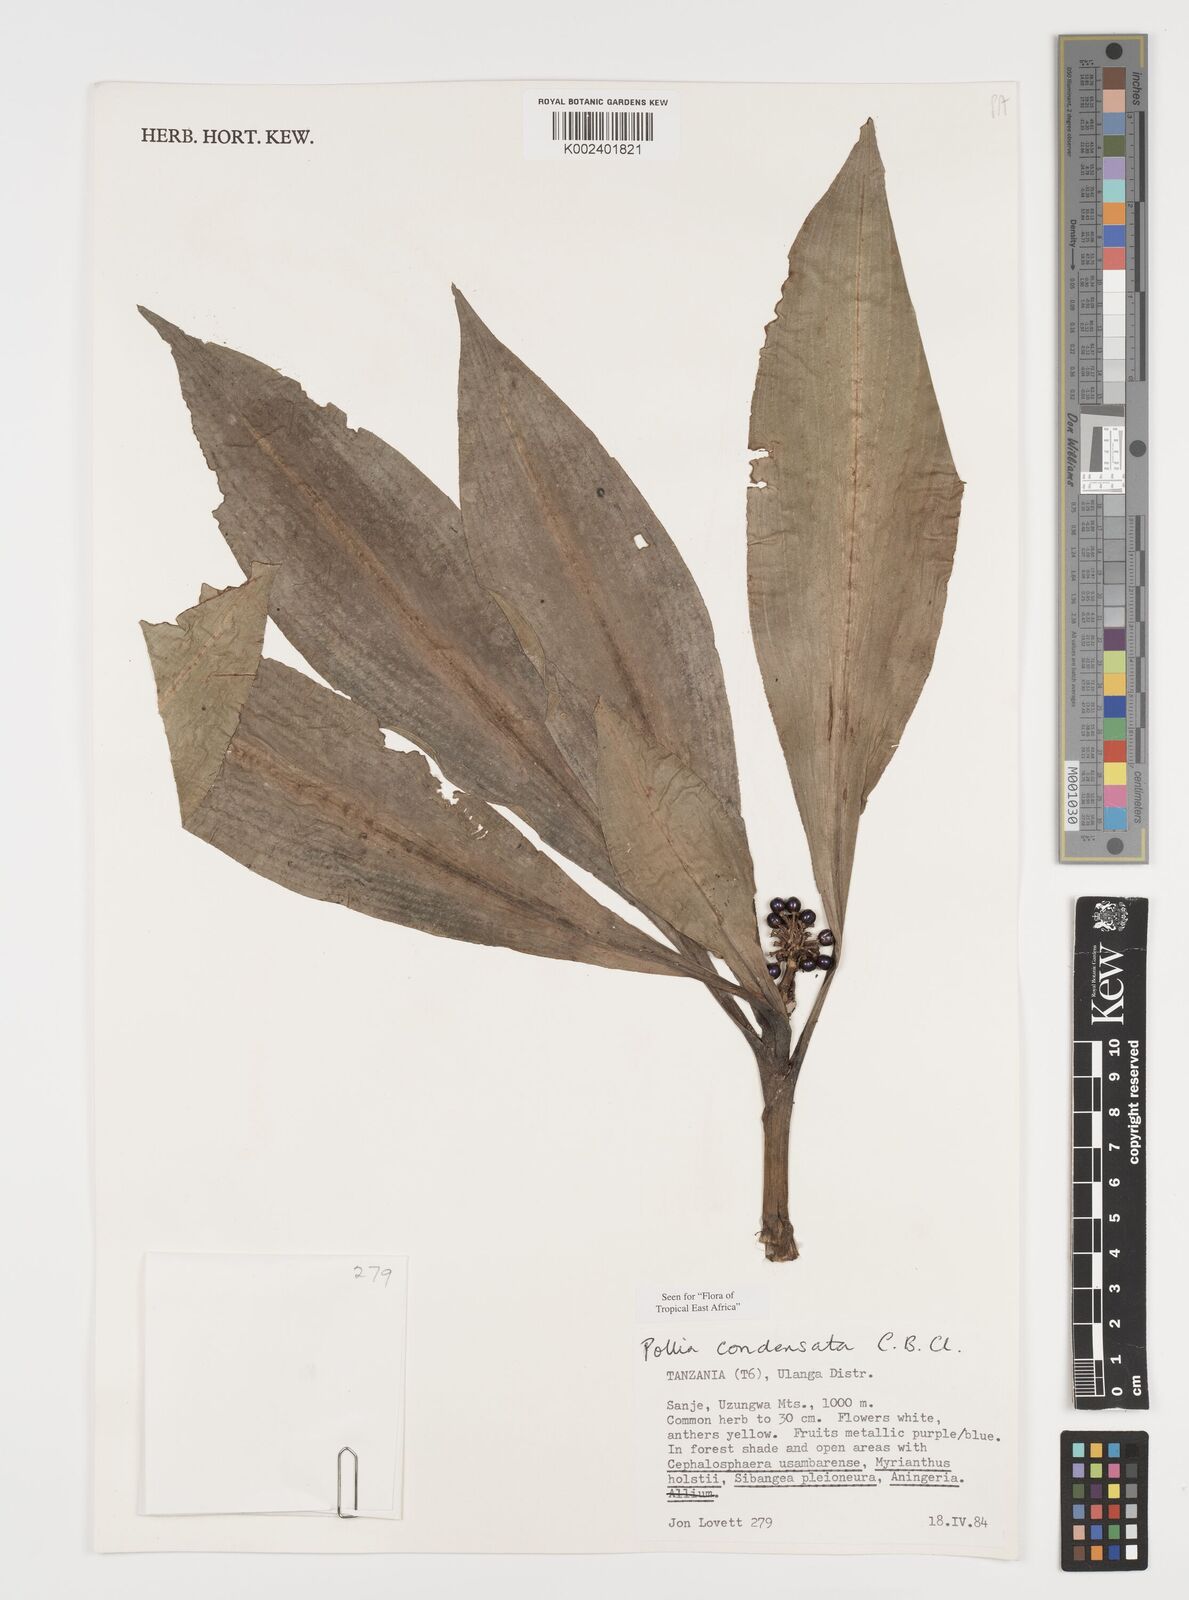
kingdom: Plantae
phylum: Tracheophyta
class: Liliopsida
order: Commelinales
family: Commelinaceae
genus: Pollia
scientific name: Pollia condensata
